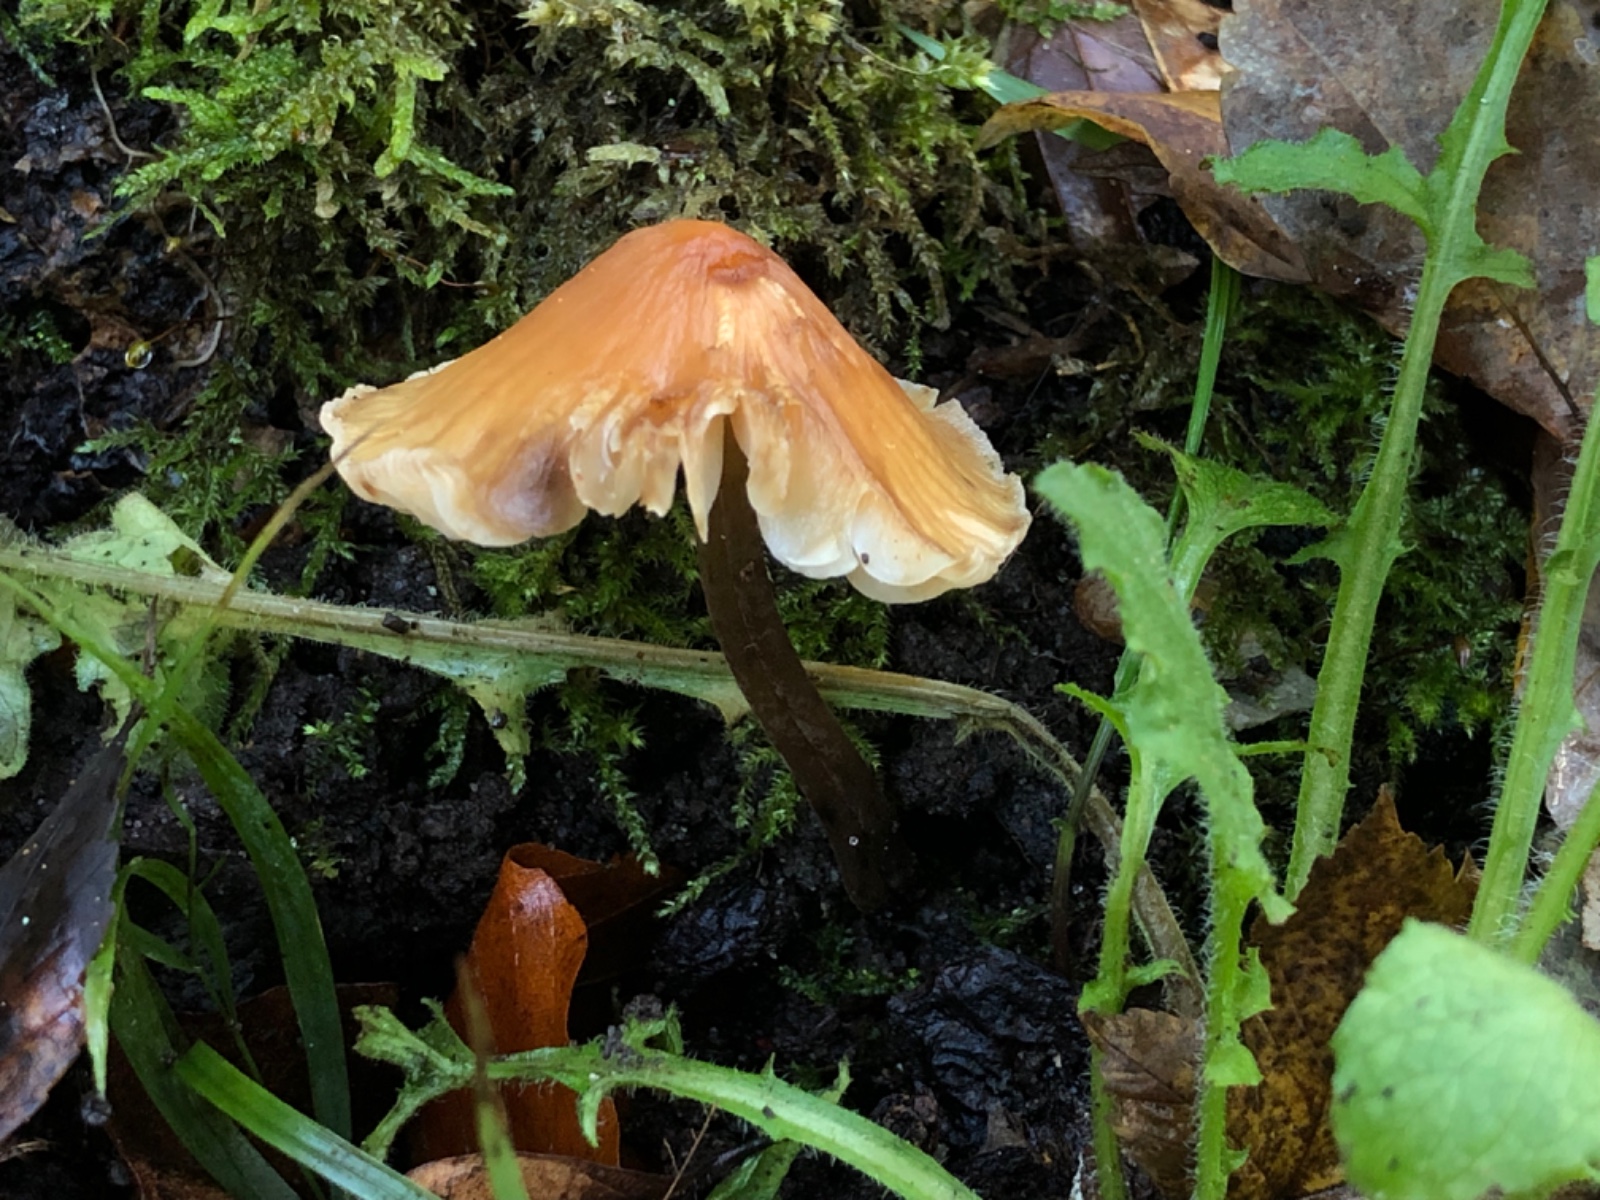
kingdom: Fungi
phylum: Basidiomycota
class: Agaricomycetes
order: Agaricales
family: Mycenaceae
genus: Atheniella
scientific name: Atheniella leptophylla
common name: abrikos-huesvamp
